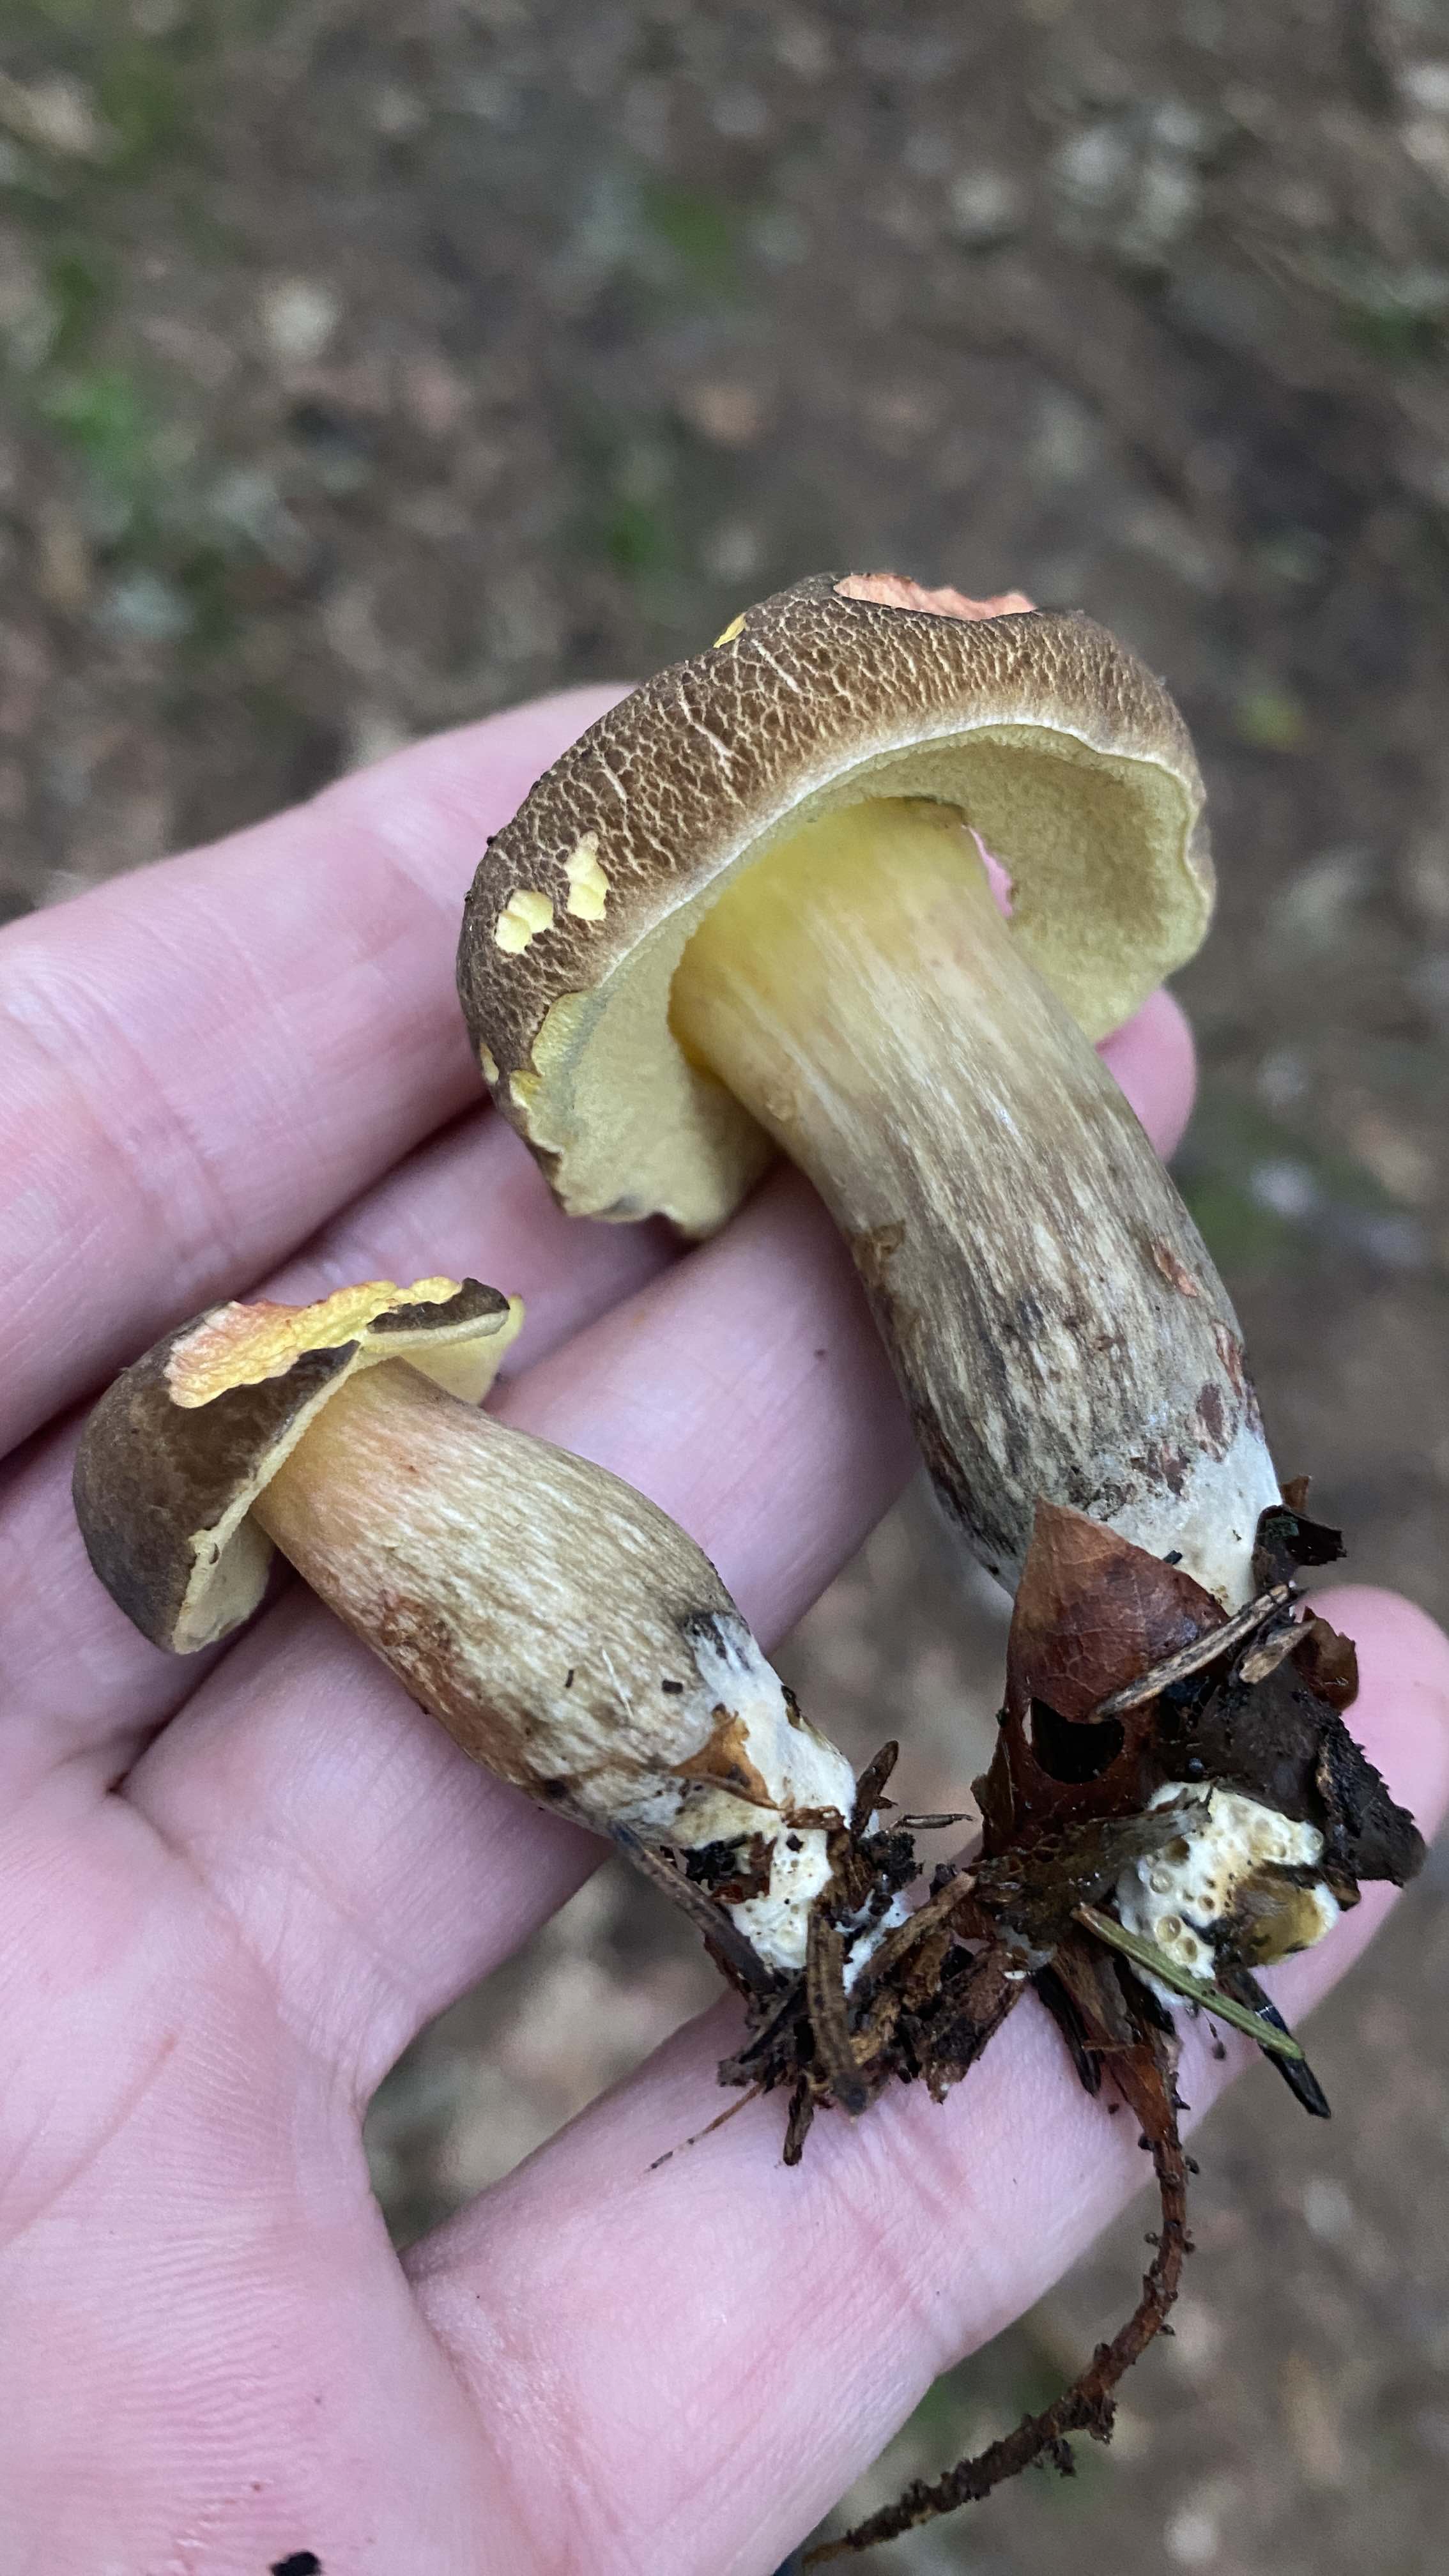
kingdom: Fungi
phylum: Basidiomycota
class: Agaricomycetes
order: Boletales
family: Boletaceae
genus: Xerocomellus
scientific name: Xerocomellus porosporus
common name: hvidsprukken rørhat
